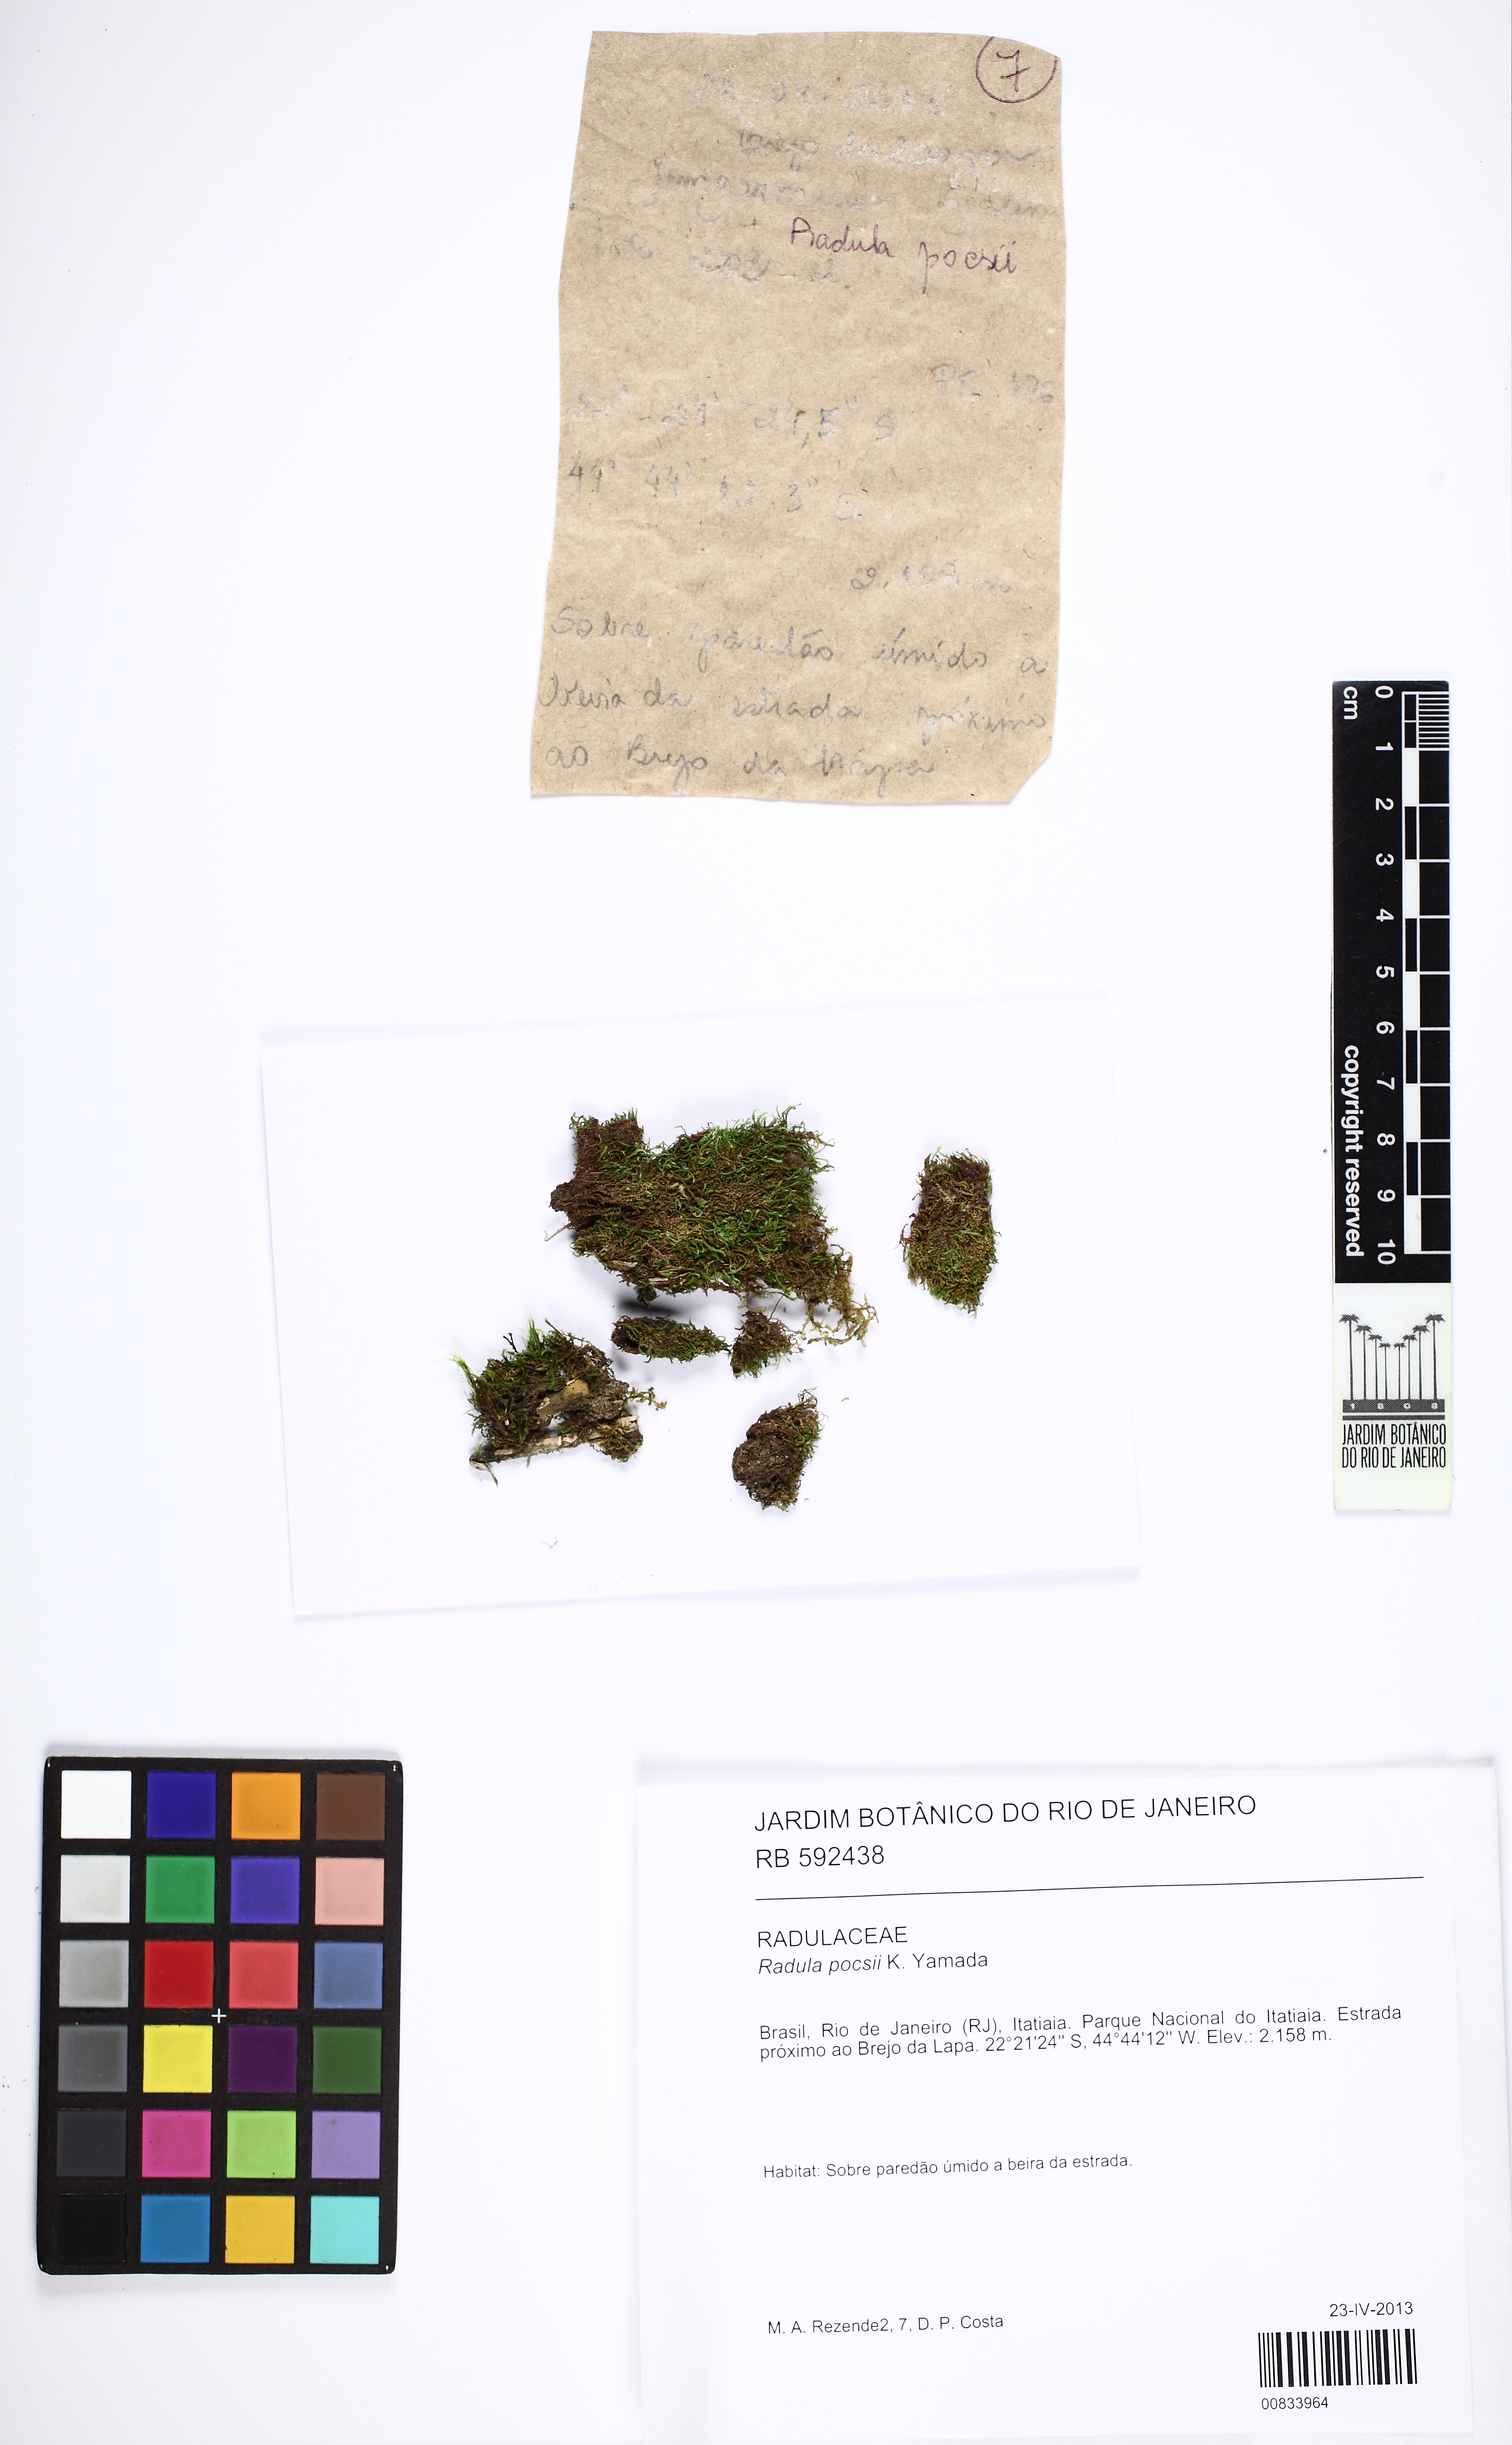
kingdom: Plantae
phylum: Marchantiophyta
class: Jungermanniopsida
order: Porellales
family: Radulaceae
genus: Radula
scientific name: Radula nudicaulis
